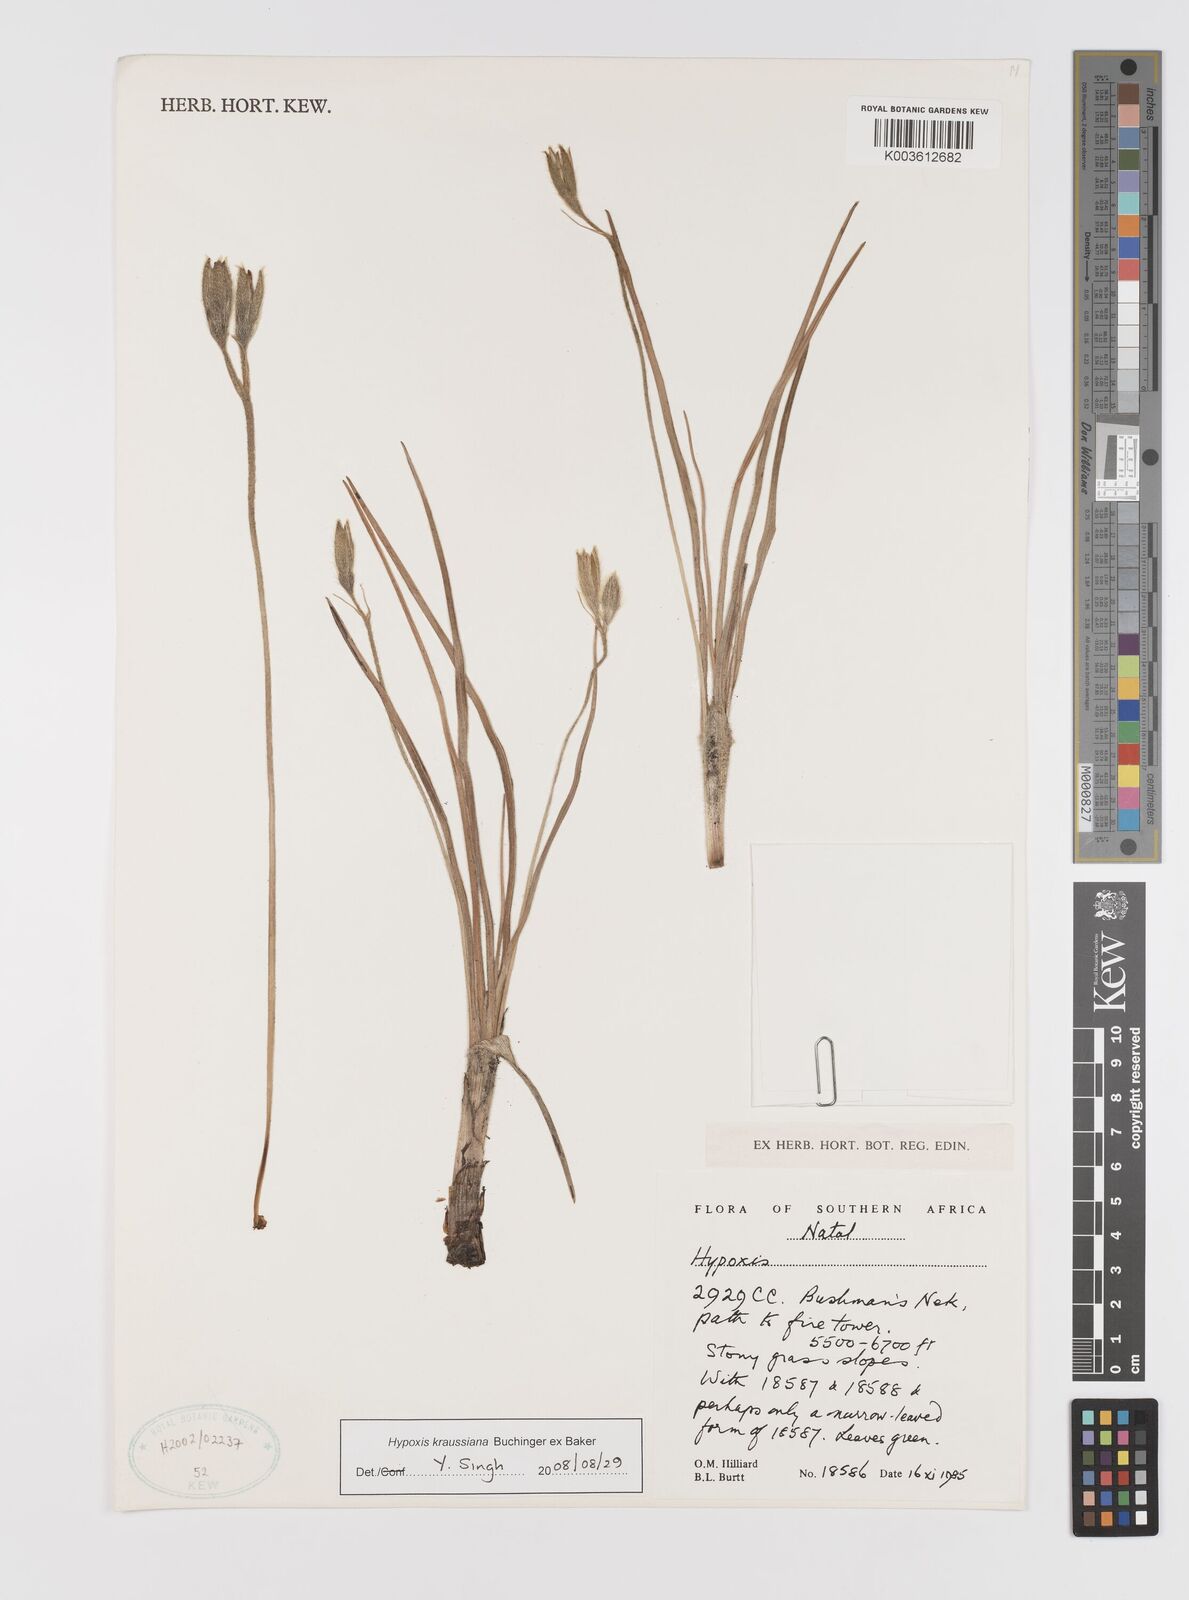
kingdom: Plantae
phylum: Tracheophyta
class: Liliopsida
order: Asparagales
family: Hypoxidaceae
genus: Hypoxis
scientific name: Hypoxis kraussiana
